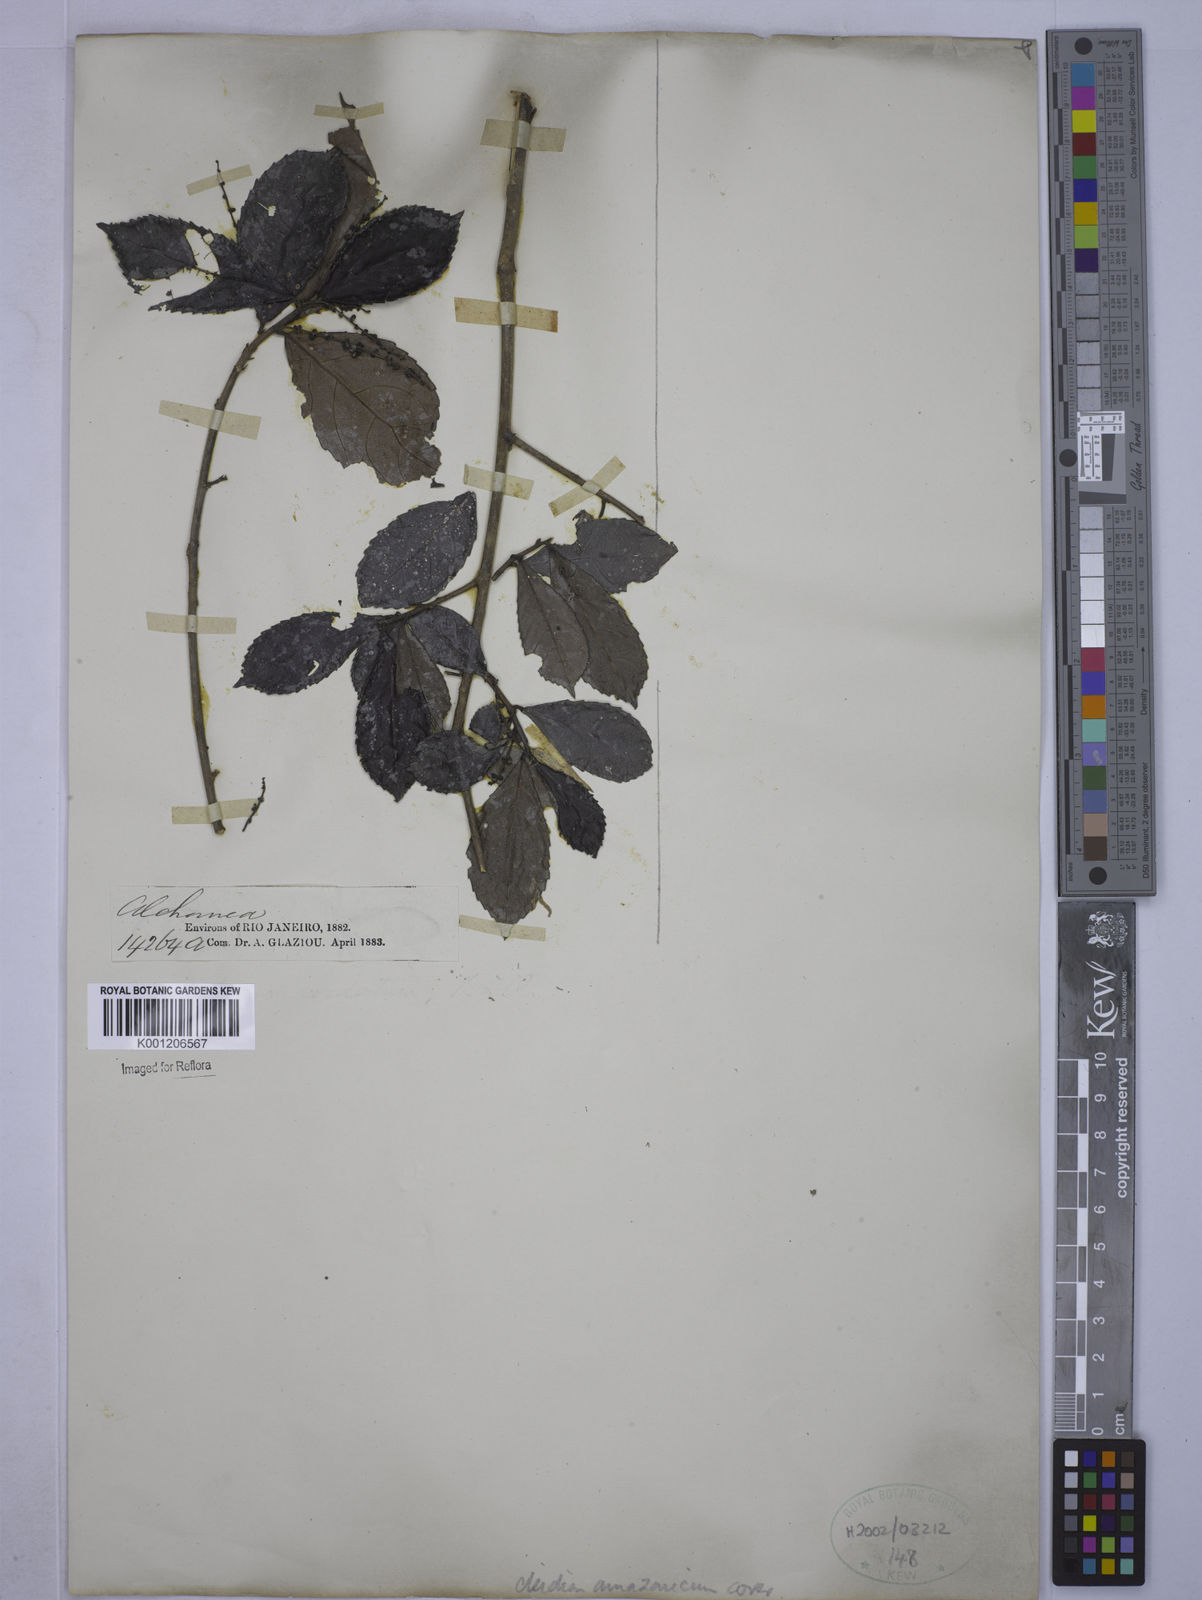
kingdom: Plantae
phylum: Tracheophyta
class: Magnoliopsida
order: Malpighiales
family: Euphorbiaceae
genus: Cleidion
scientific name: Cleidion amazonicum
